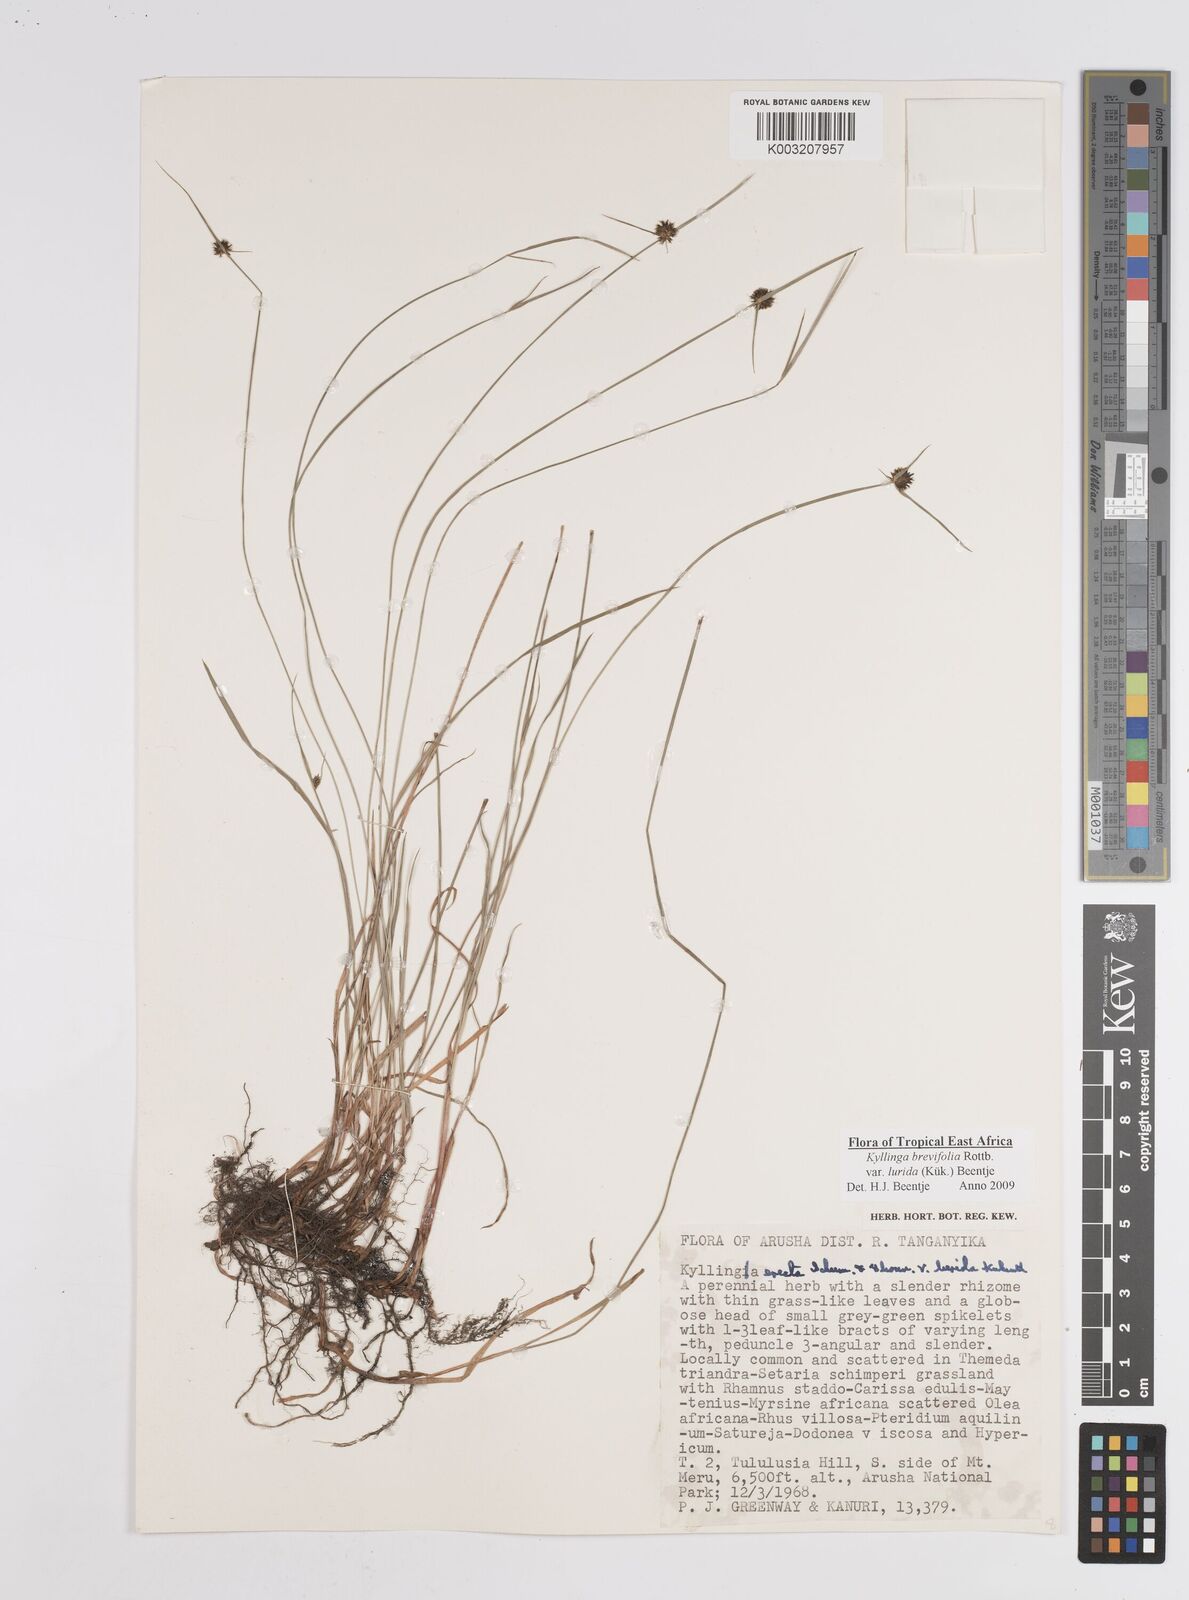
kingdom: Plantae
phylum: Tracheophyta
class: Liliopsida
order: Poales
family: Cyperaceae
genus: Cyperus
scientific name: Cyperus erectus
